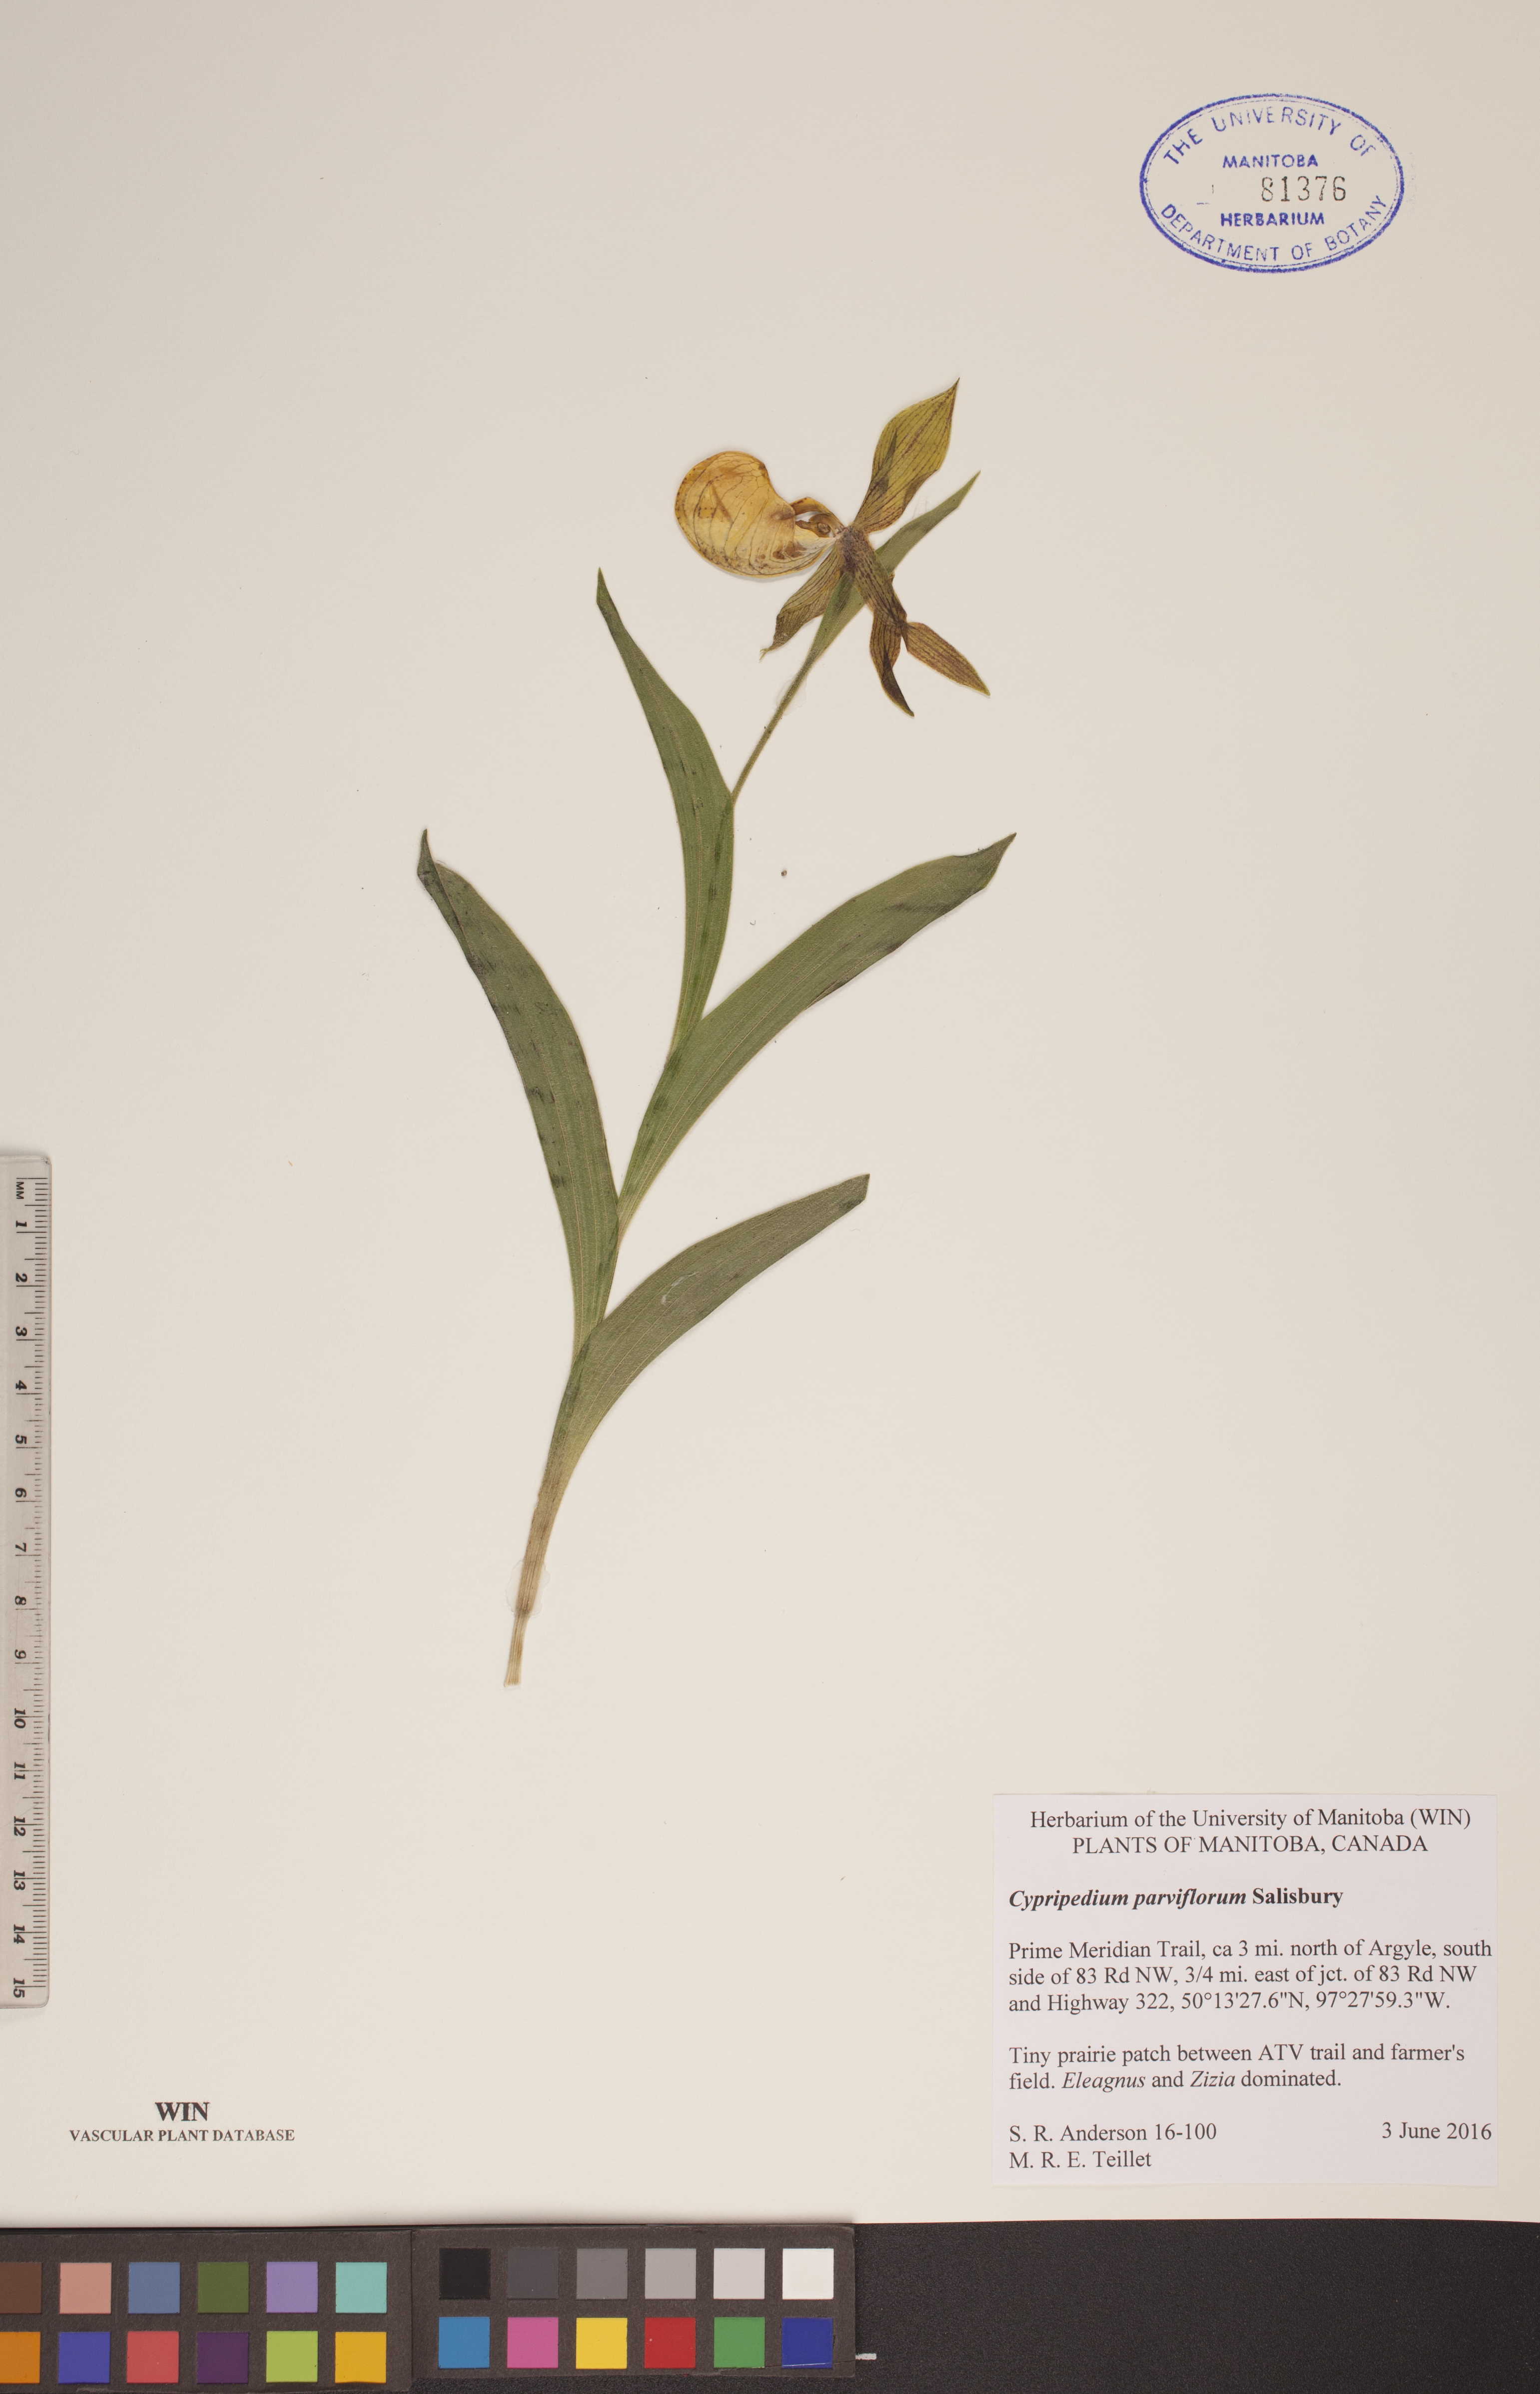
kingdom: Plantae
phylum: Tracheophyta
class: Liliopsida
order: Asparagales
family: Orchidaceae
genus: Cypripedium
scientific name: Cypripedium parviflorum
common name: American yellow lady's-slipper
